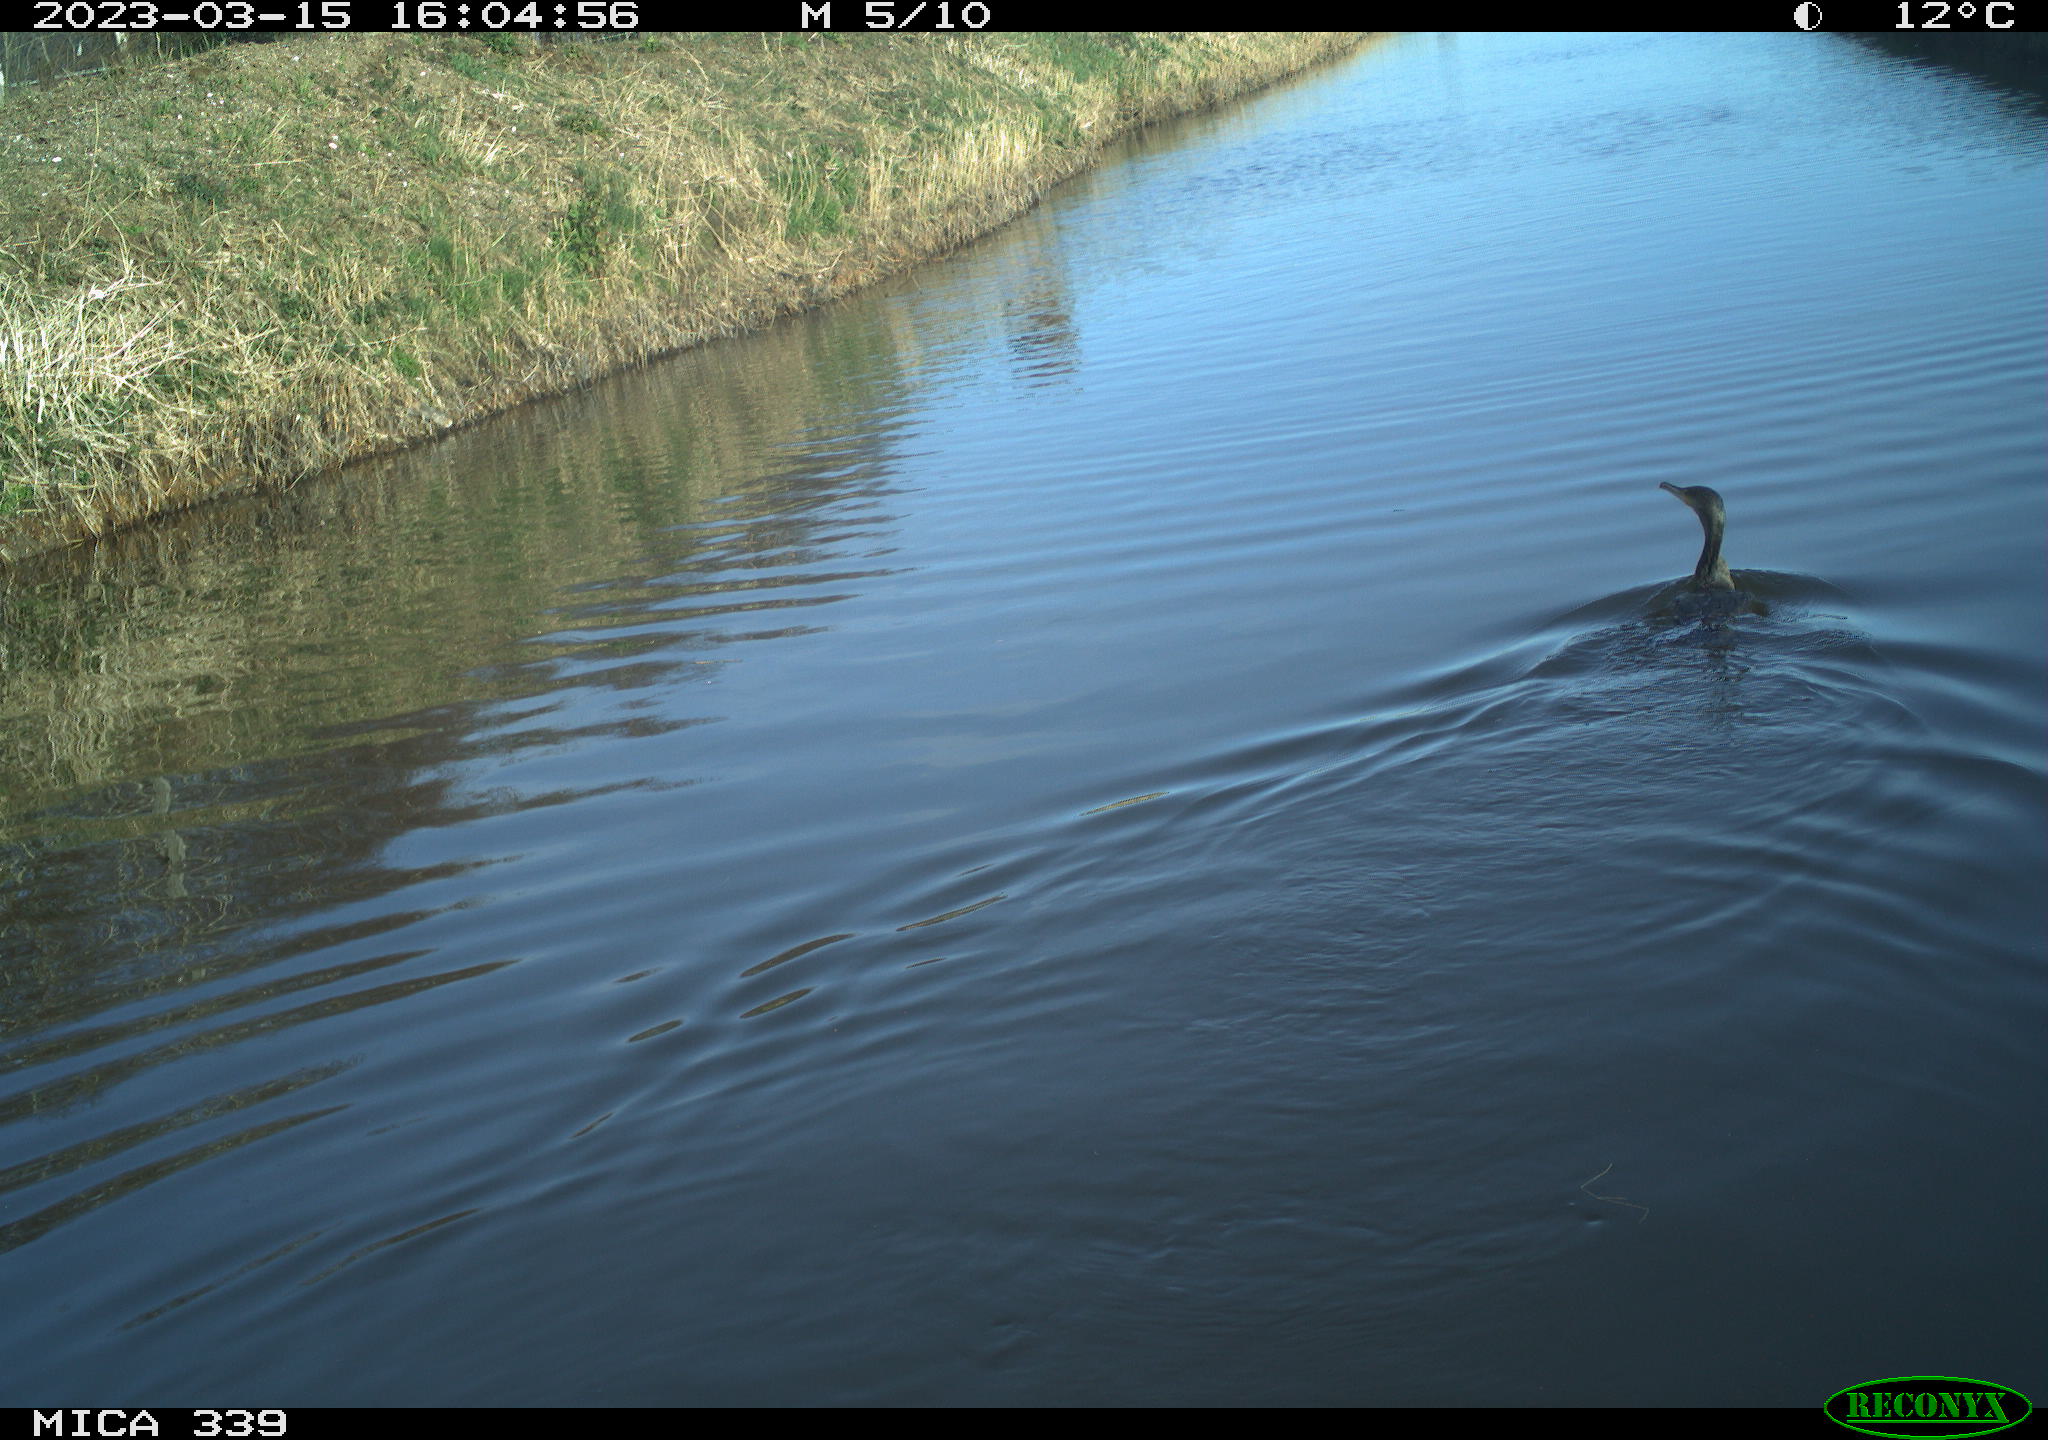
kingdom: Animalia
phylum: Chordata
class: Aves
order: Suliformes
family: Phalacrocoracidae
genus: Phalacrocorax
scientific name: Phalacrocorax carbo
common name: Great cormorant
